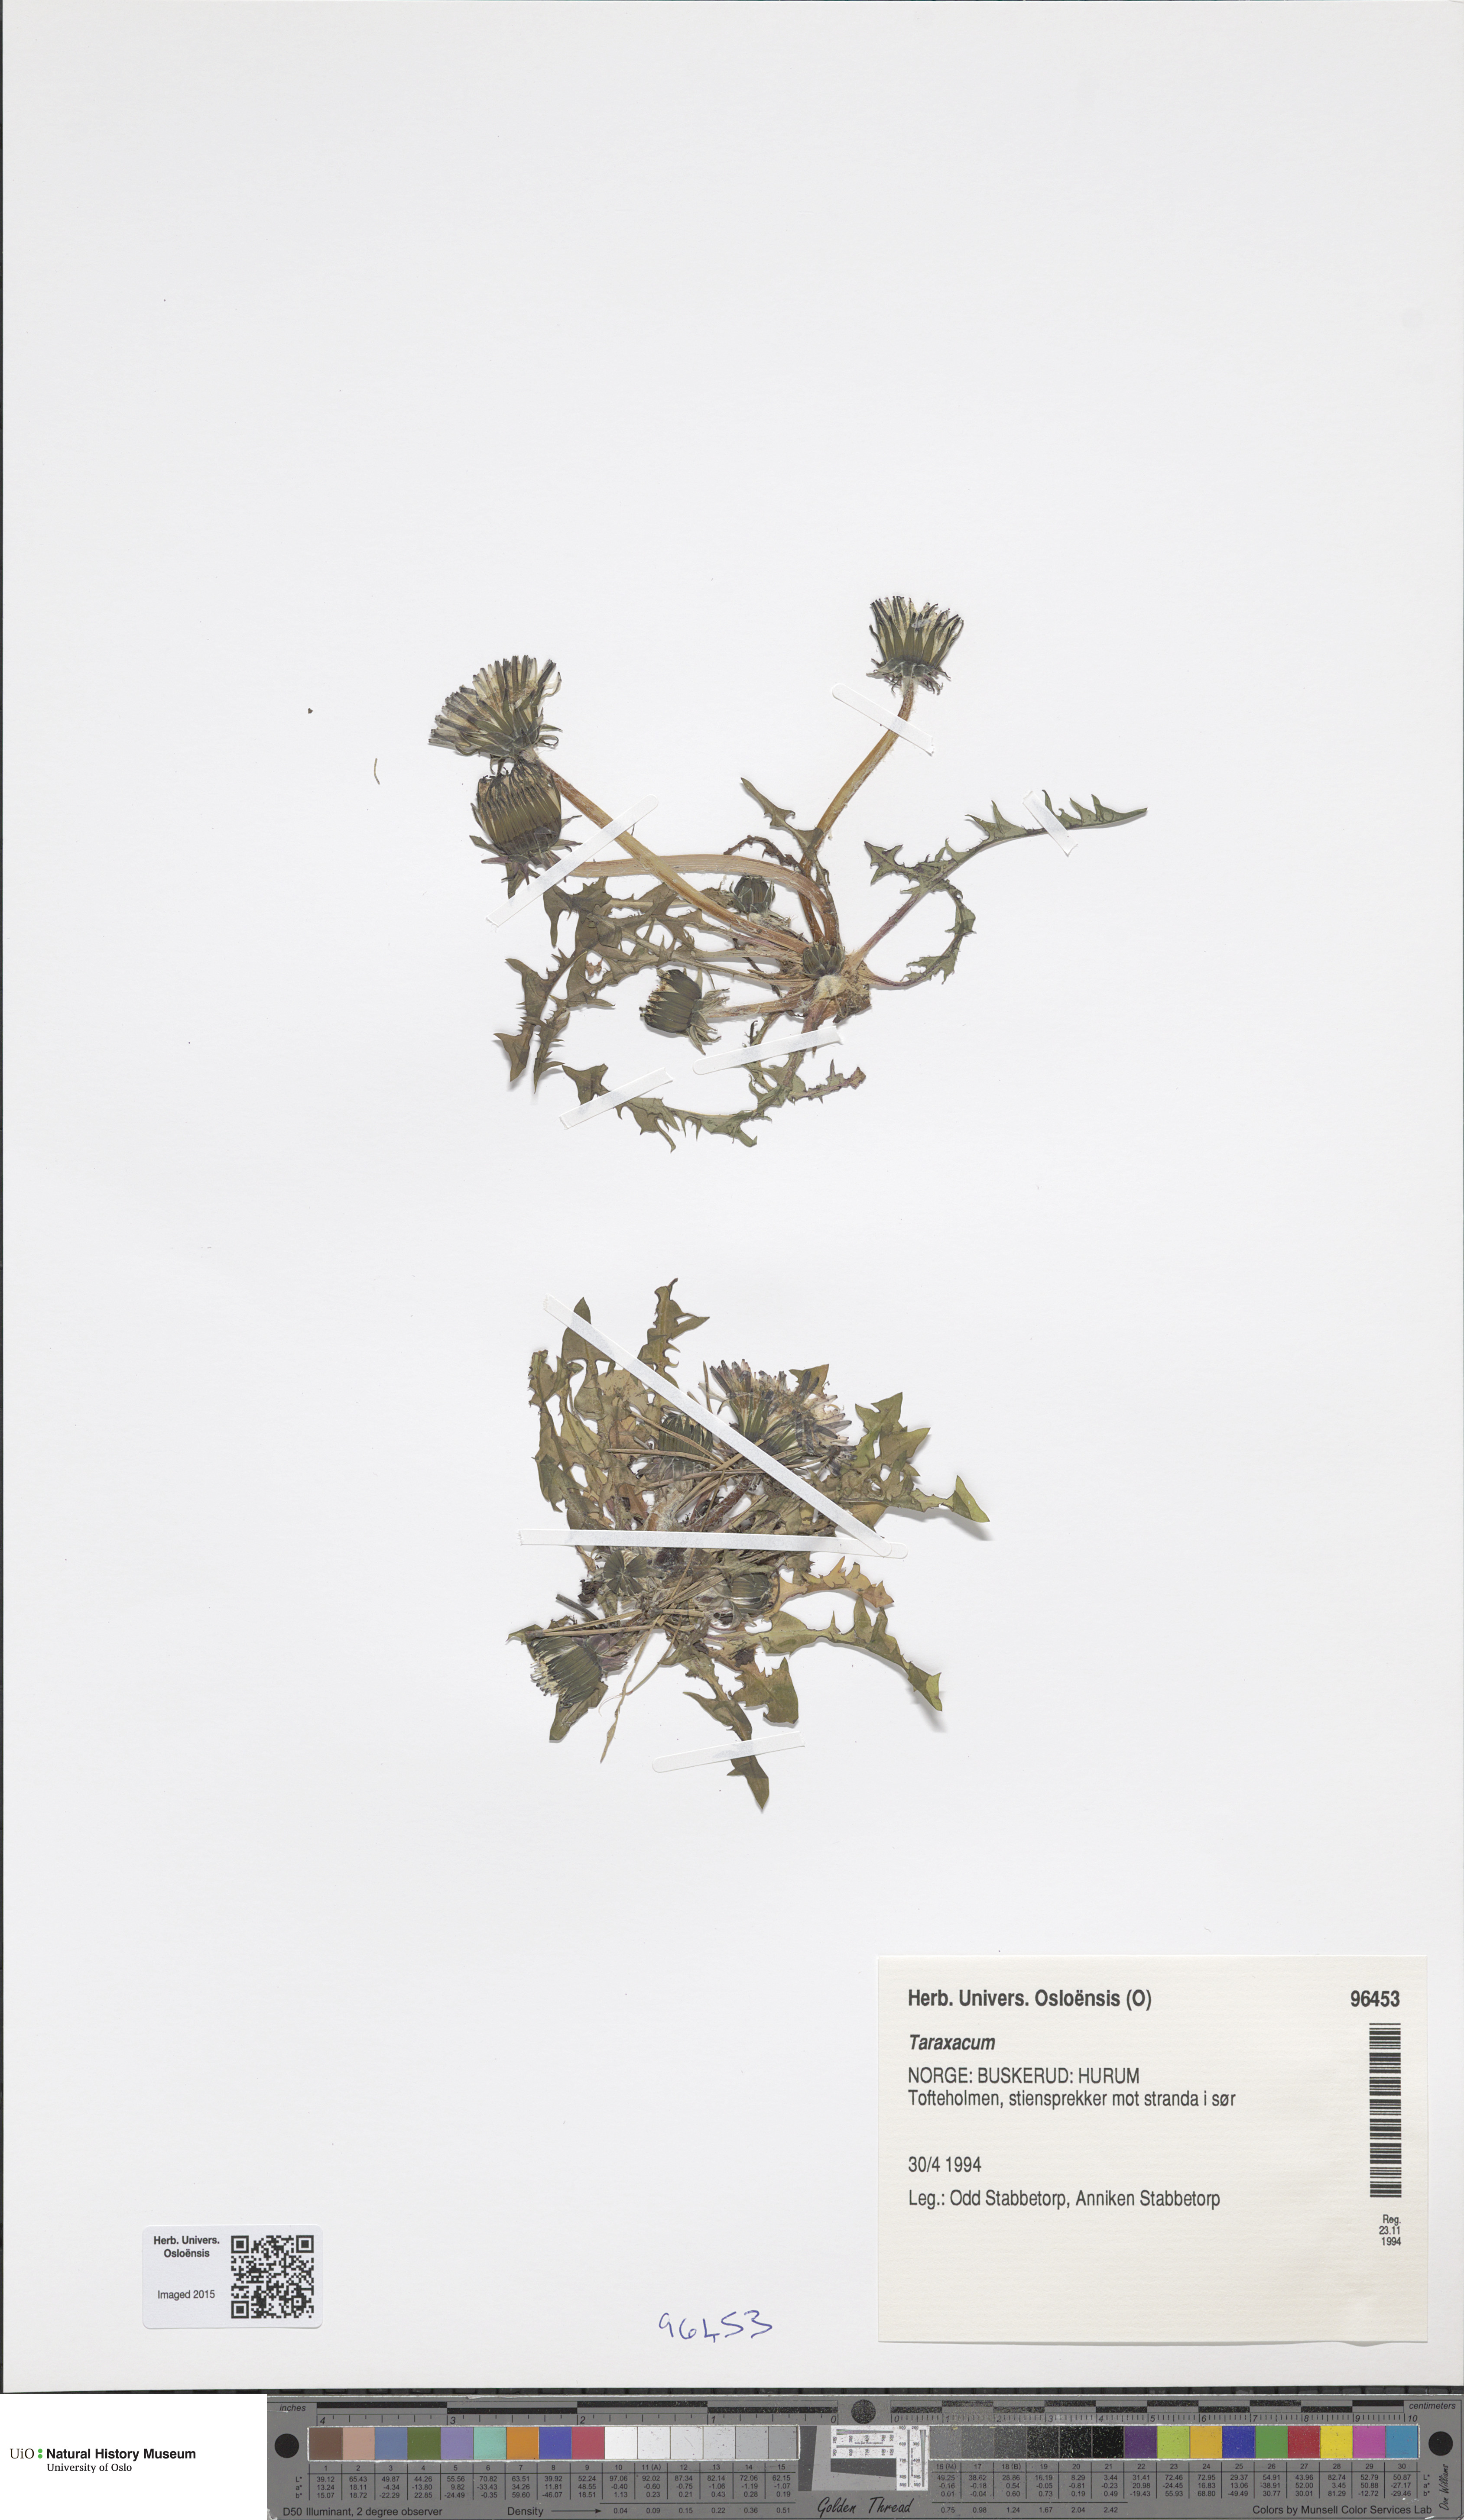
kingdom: Plantae
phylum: Tracheophyta
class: Magnoliopsida
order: Asterales
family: Asteraceae
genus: Taraxacum
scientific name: Taraxacum
